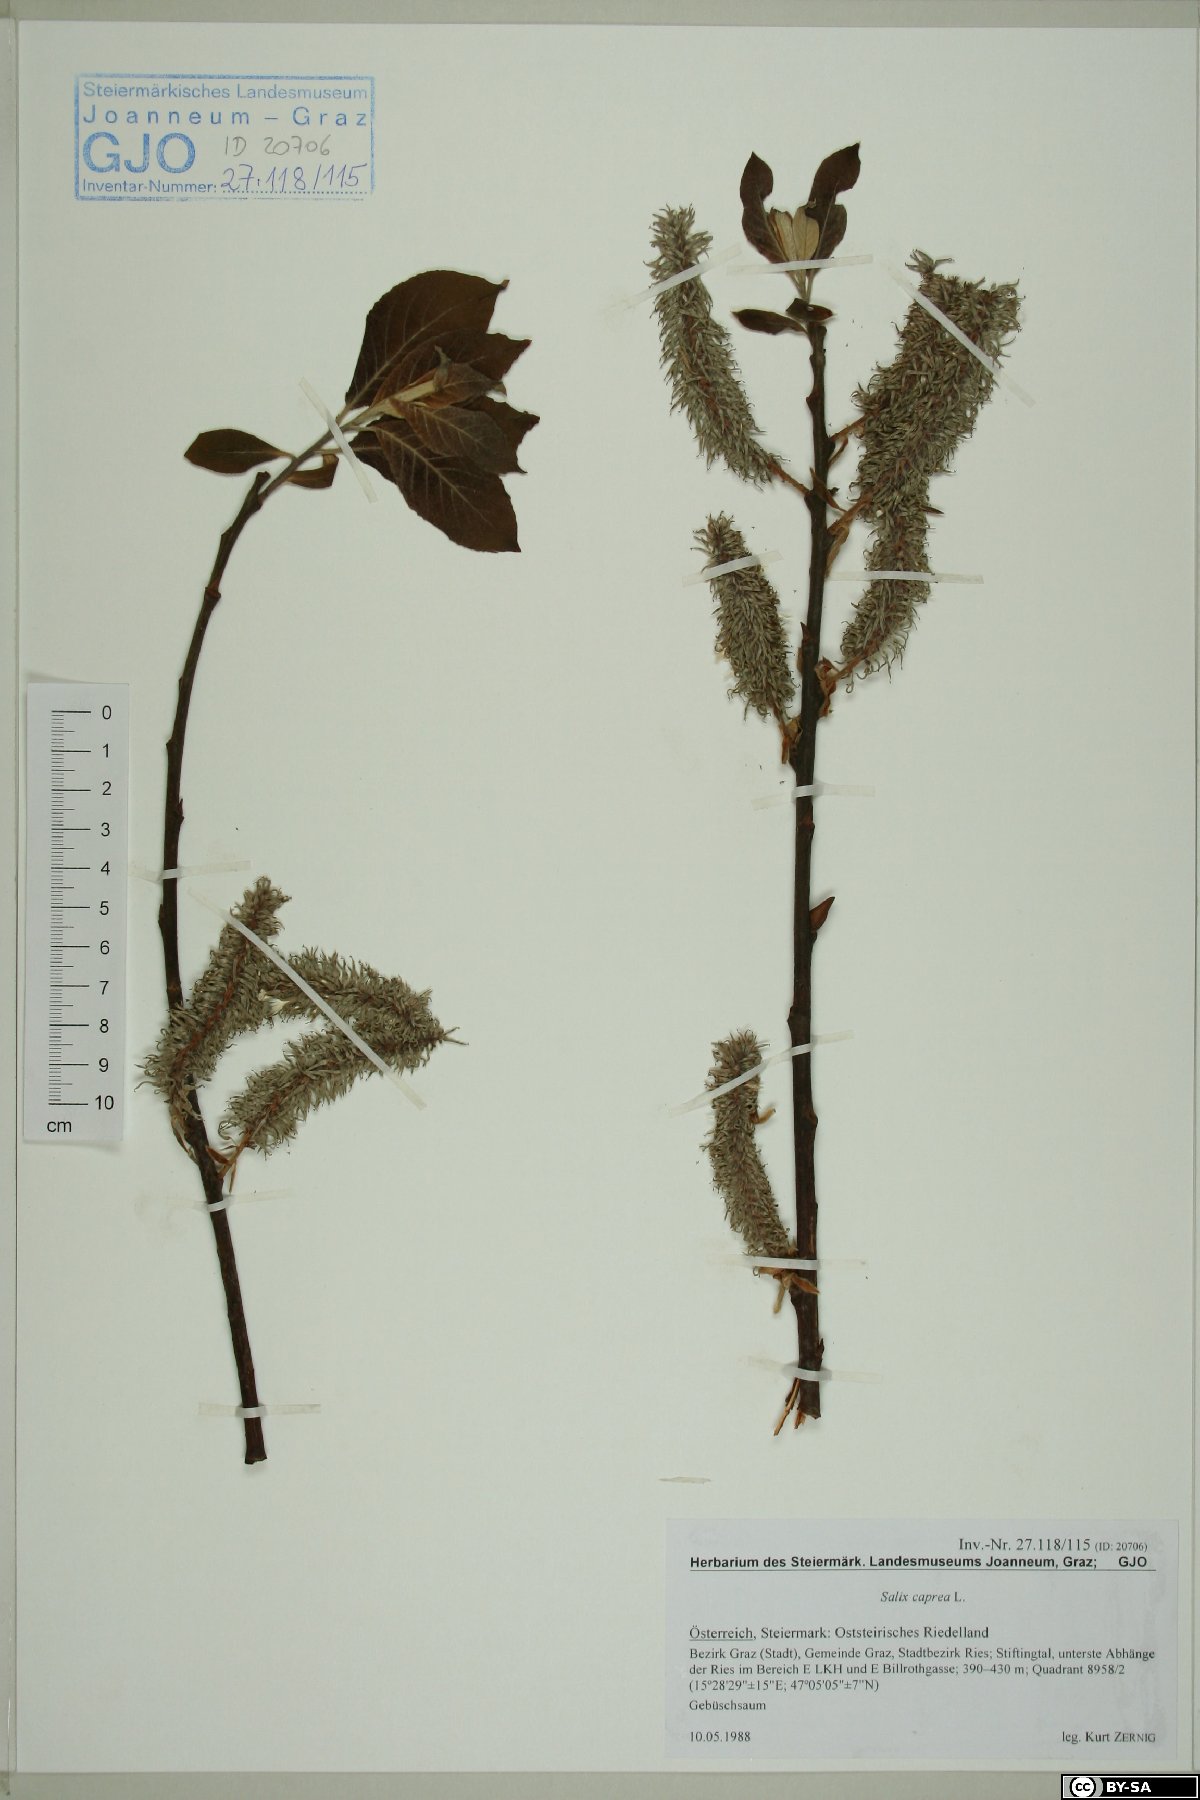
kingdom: Plantae
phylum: Tracheophyta
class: Magnoliopsida
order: Malpighiales
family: Salicaceae
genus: Salix
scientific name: Salix caprea
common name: Goat willow
